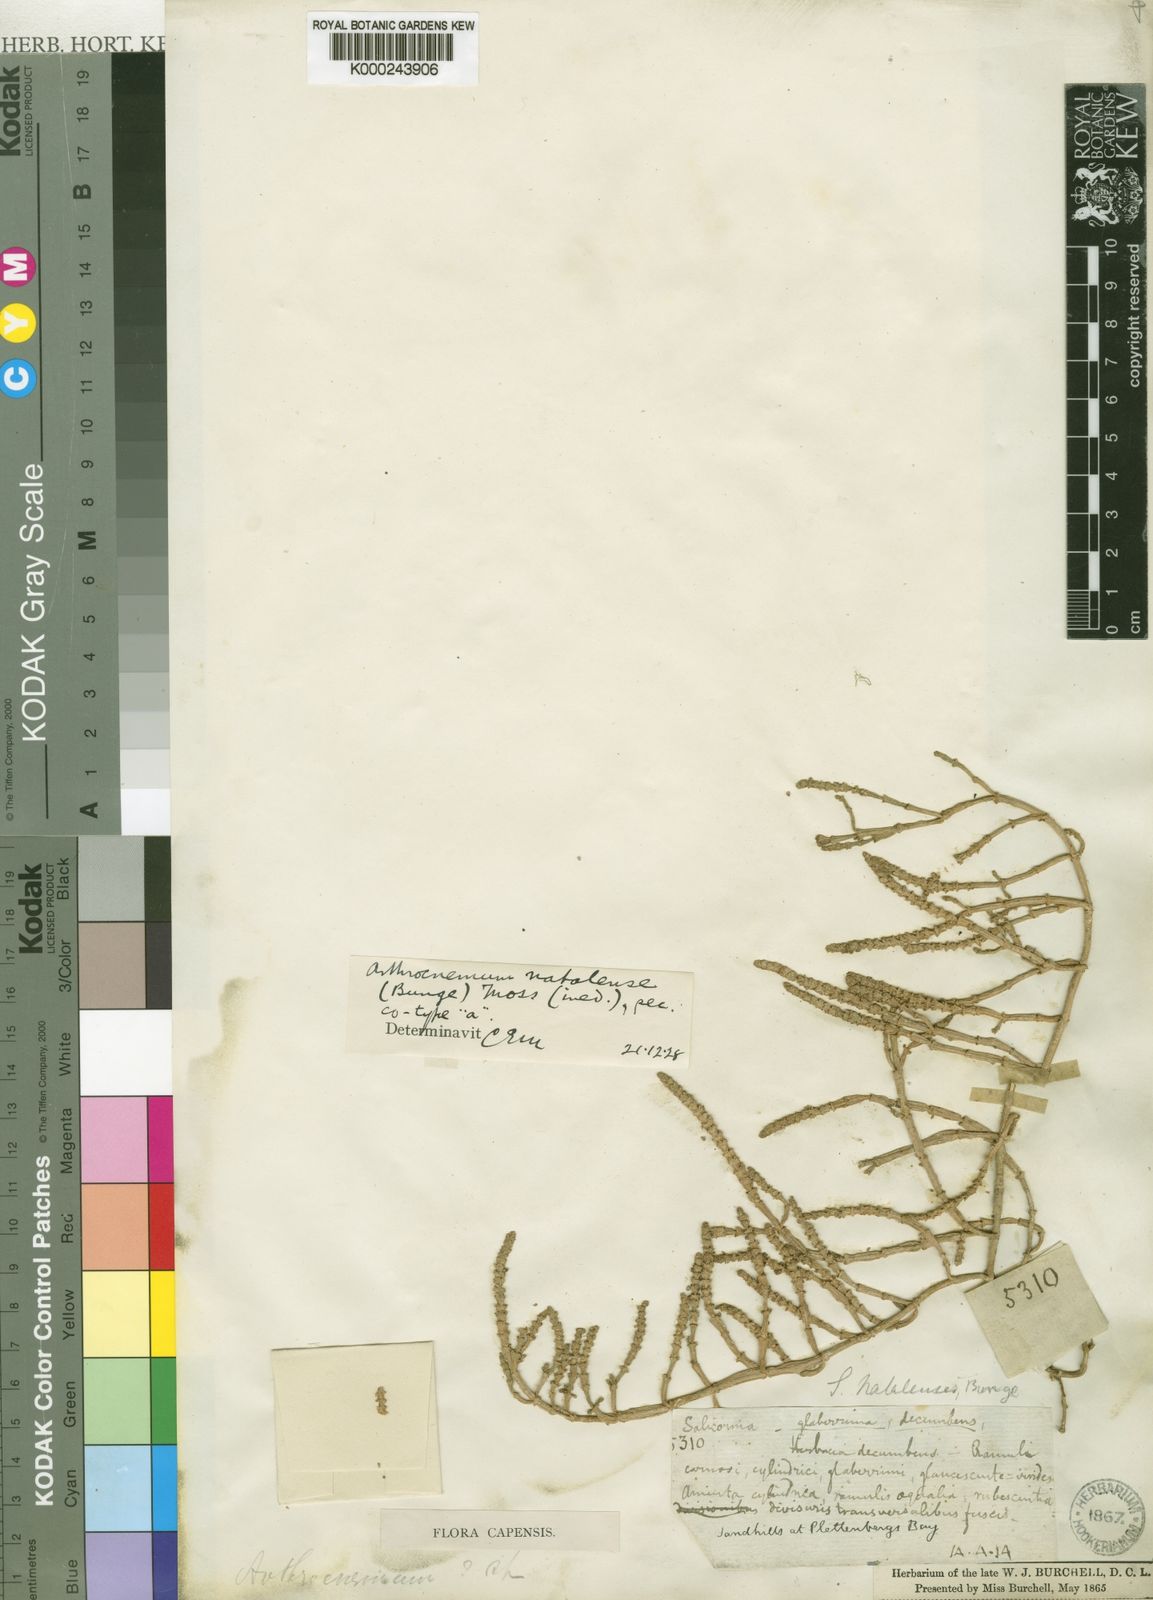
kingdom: Plantae
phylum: Tracheophyta
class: Magnoliopsida
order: Caryophyllales
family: Amaranthaceae
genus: Salicornia
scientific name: Salicornia
